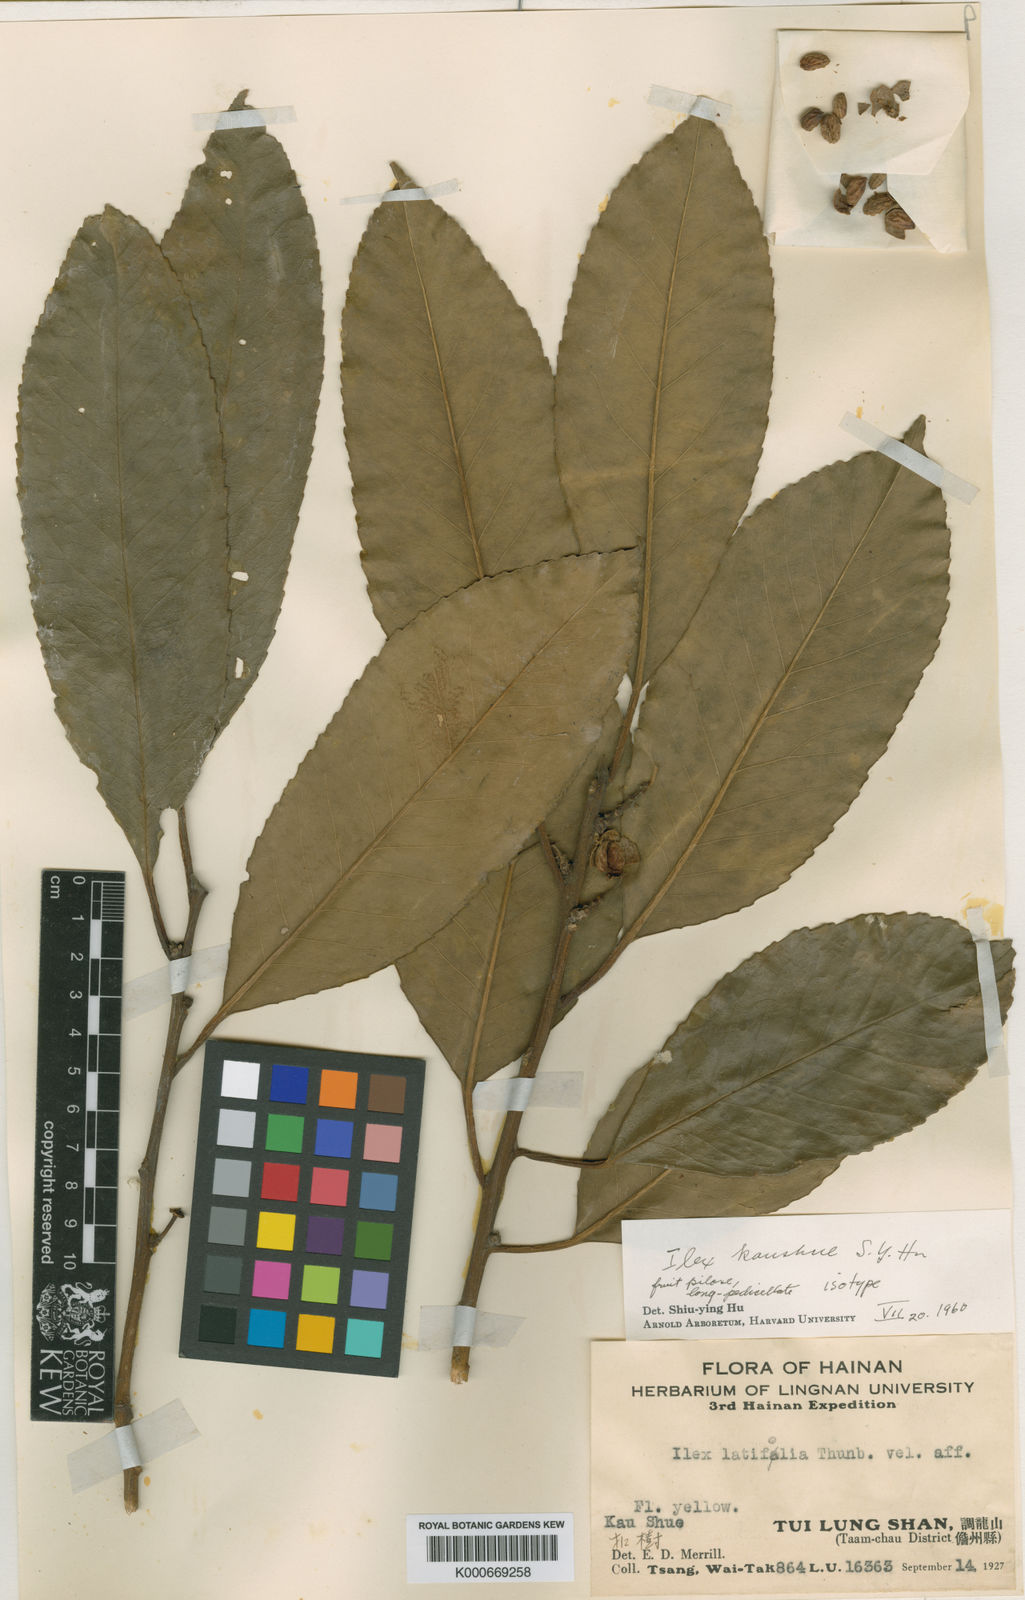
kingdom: Plantae
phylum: Tracheophyta
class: Magnoliopsida
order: Aquifoliales
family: Aquifoliaceae
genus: Ilex
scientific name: Ilex kaushue
